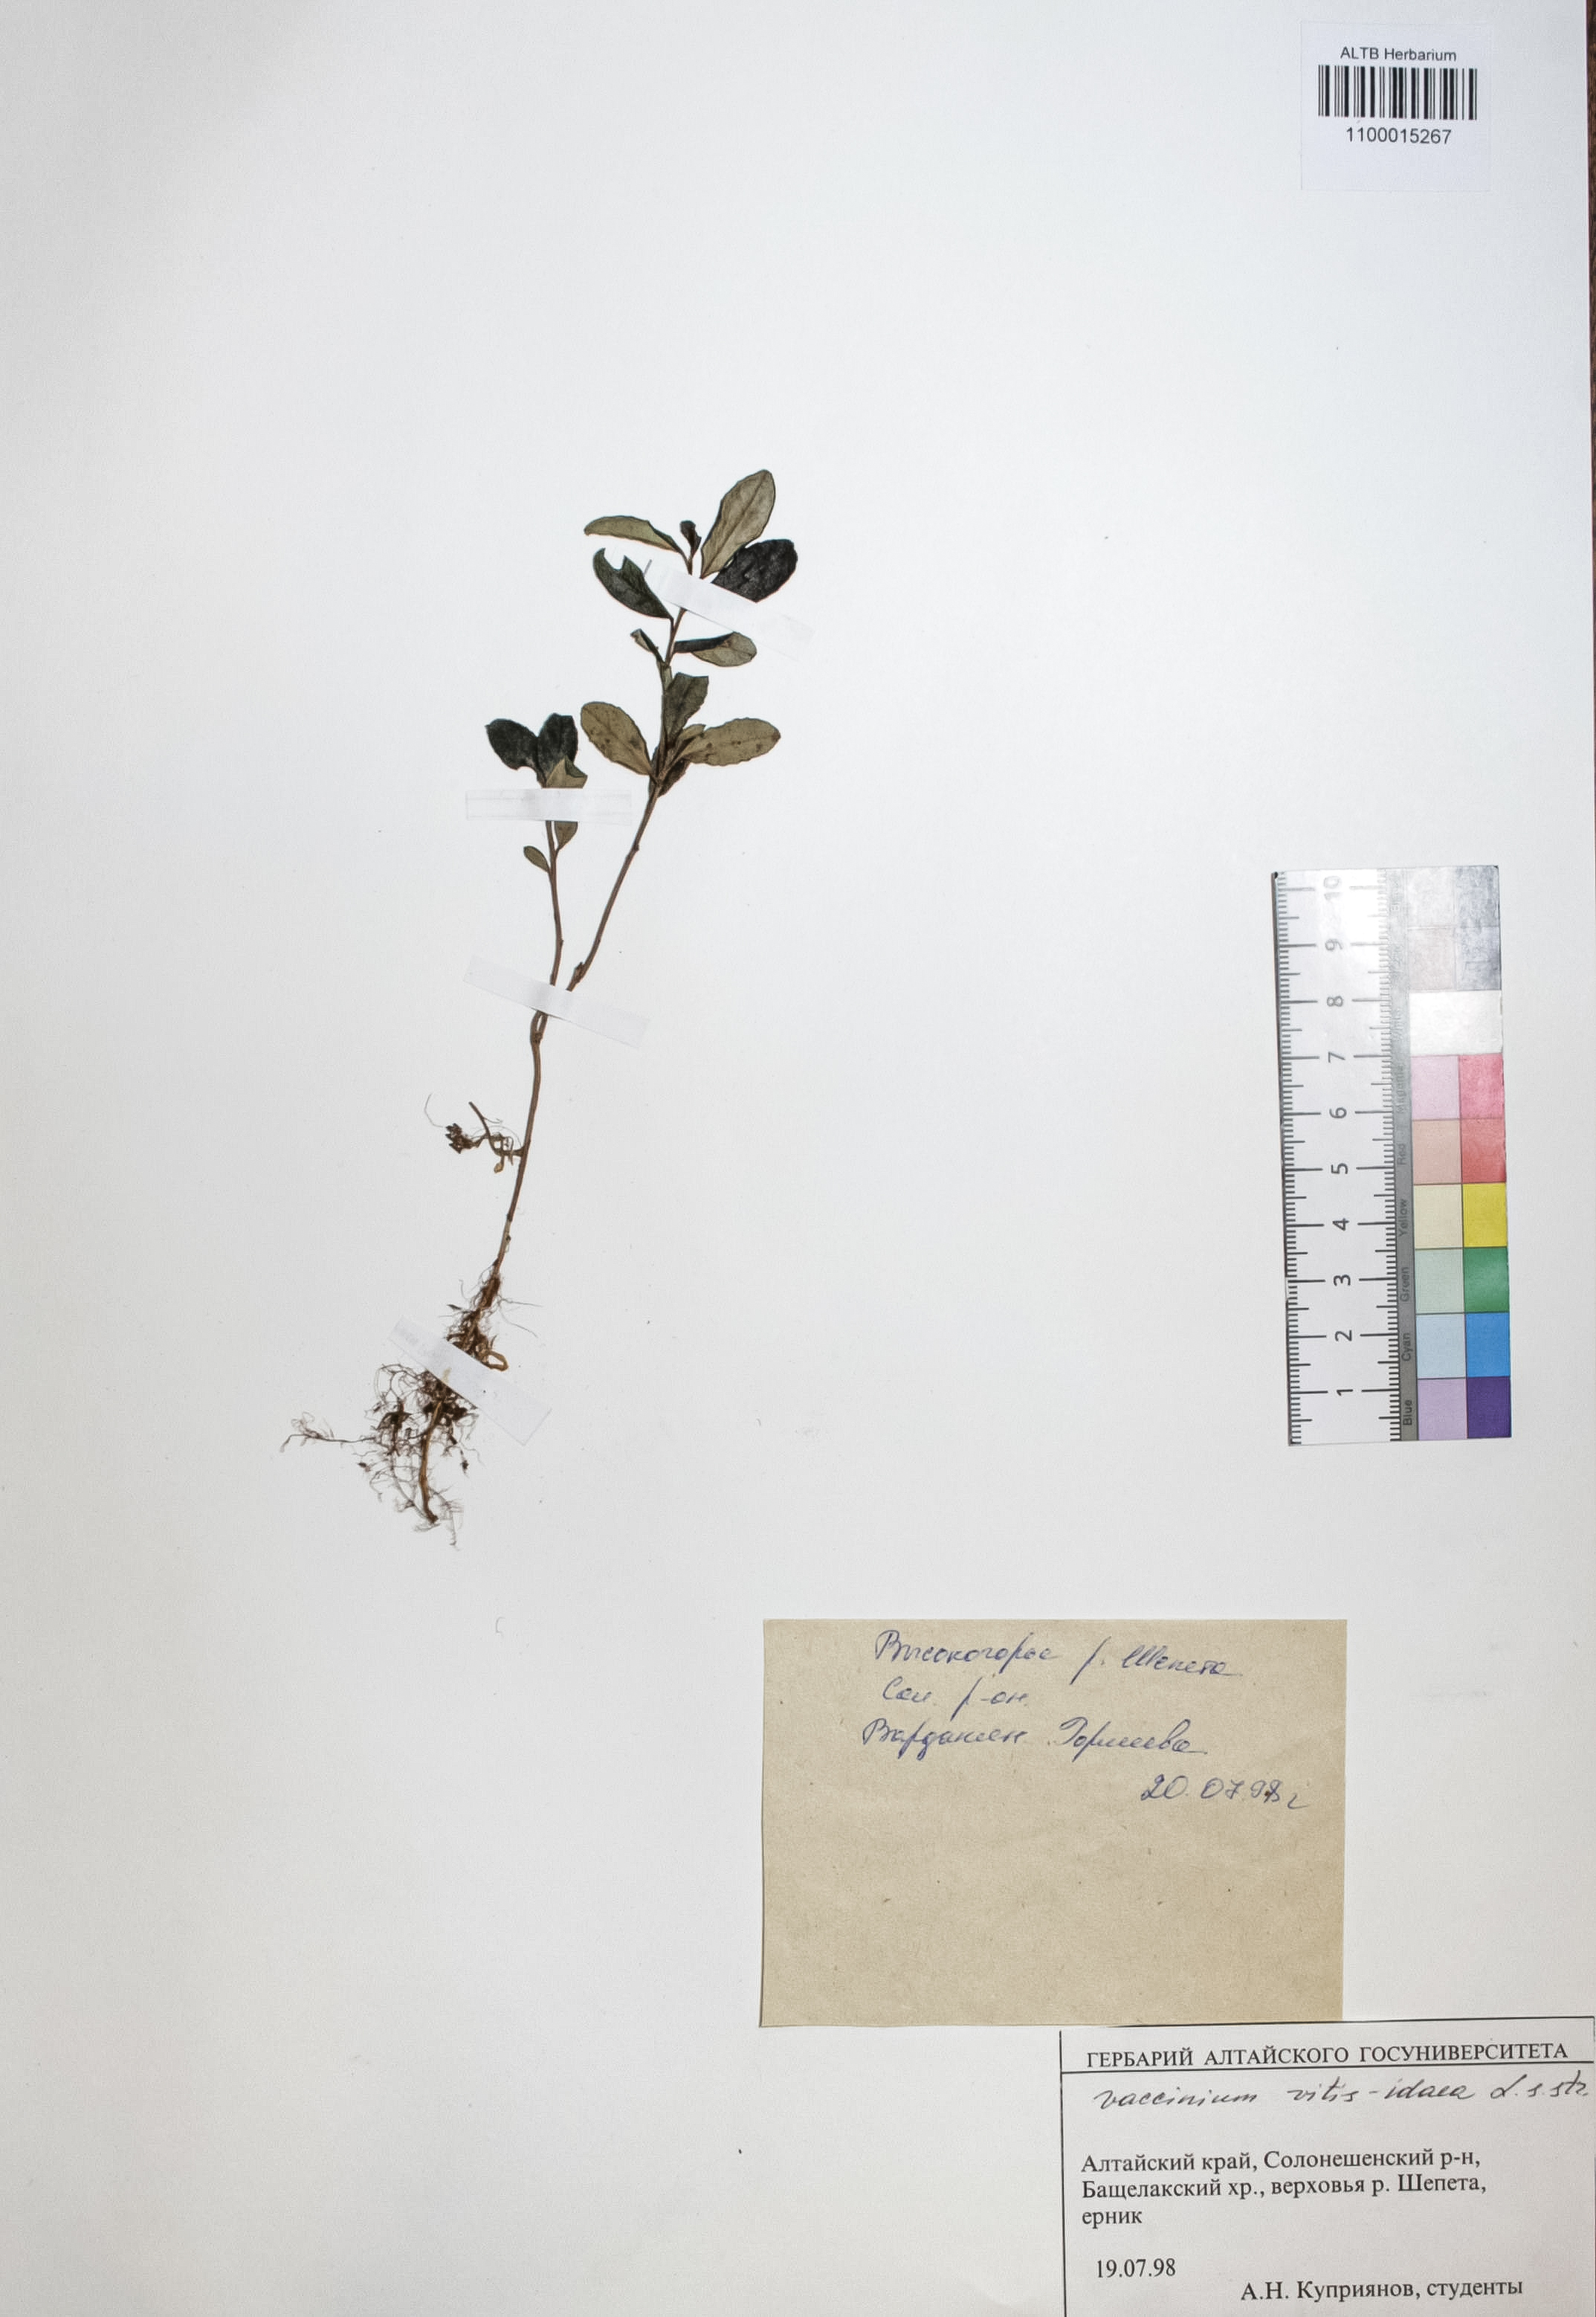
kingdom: Plantae
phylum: Tracheophyta
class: Magnoliopsida
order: Ericales
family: Ericaceae
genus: Vaccinium
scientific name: Vaccinium vitis-idaea
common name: Cowberry
